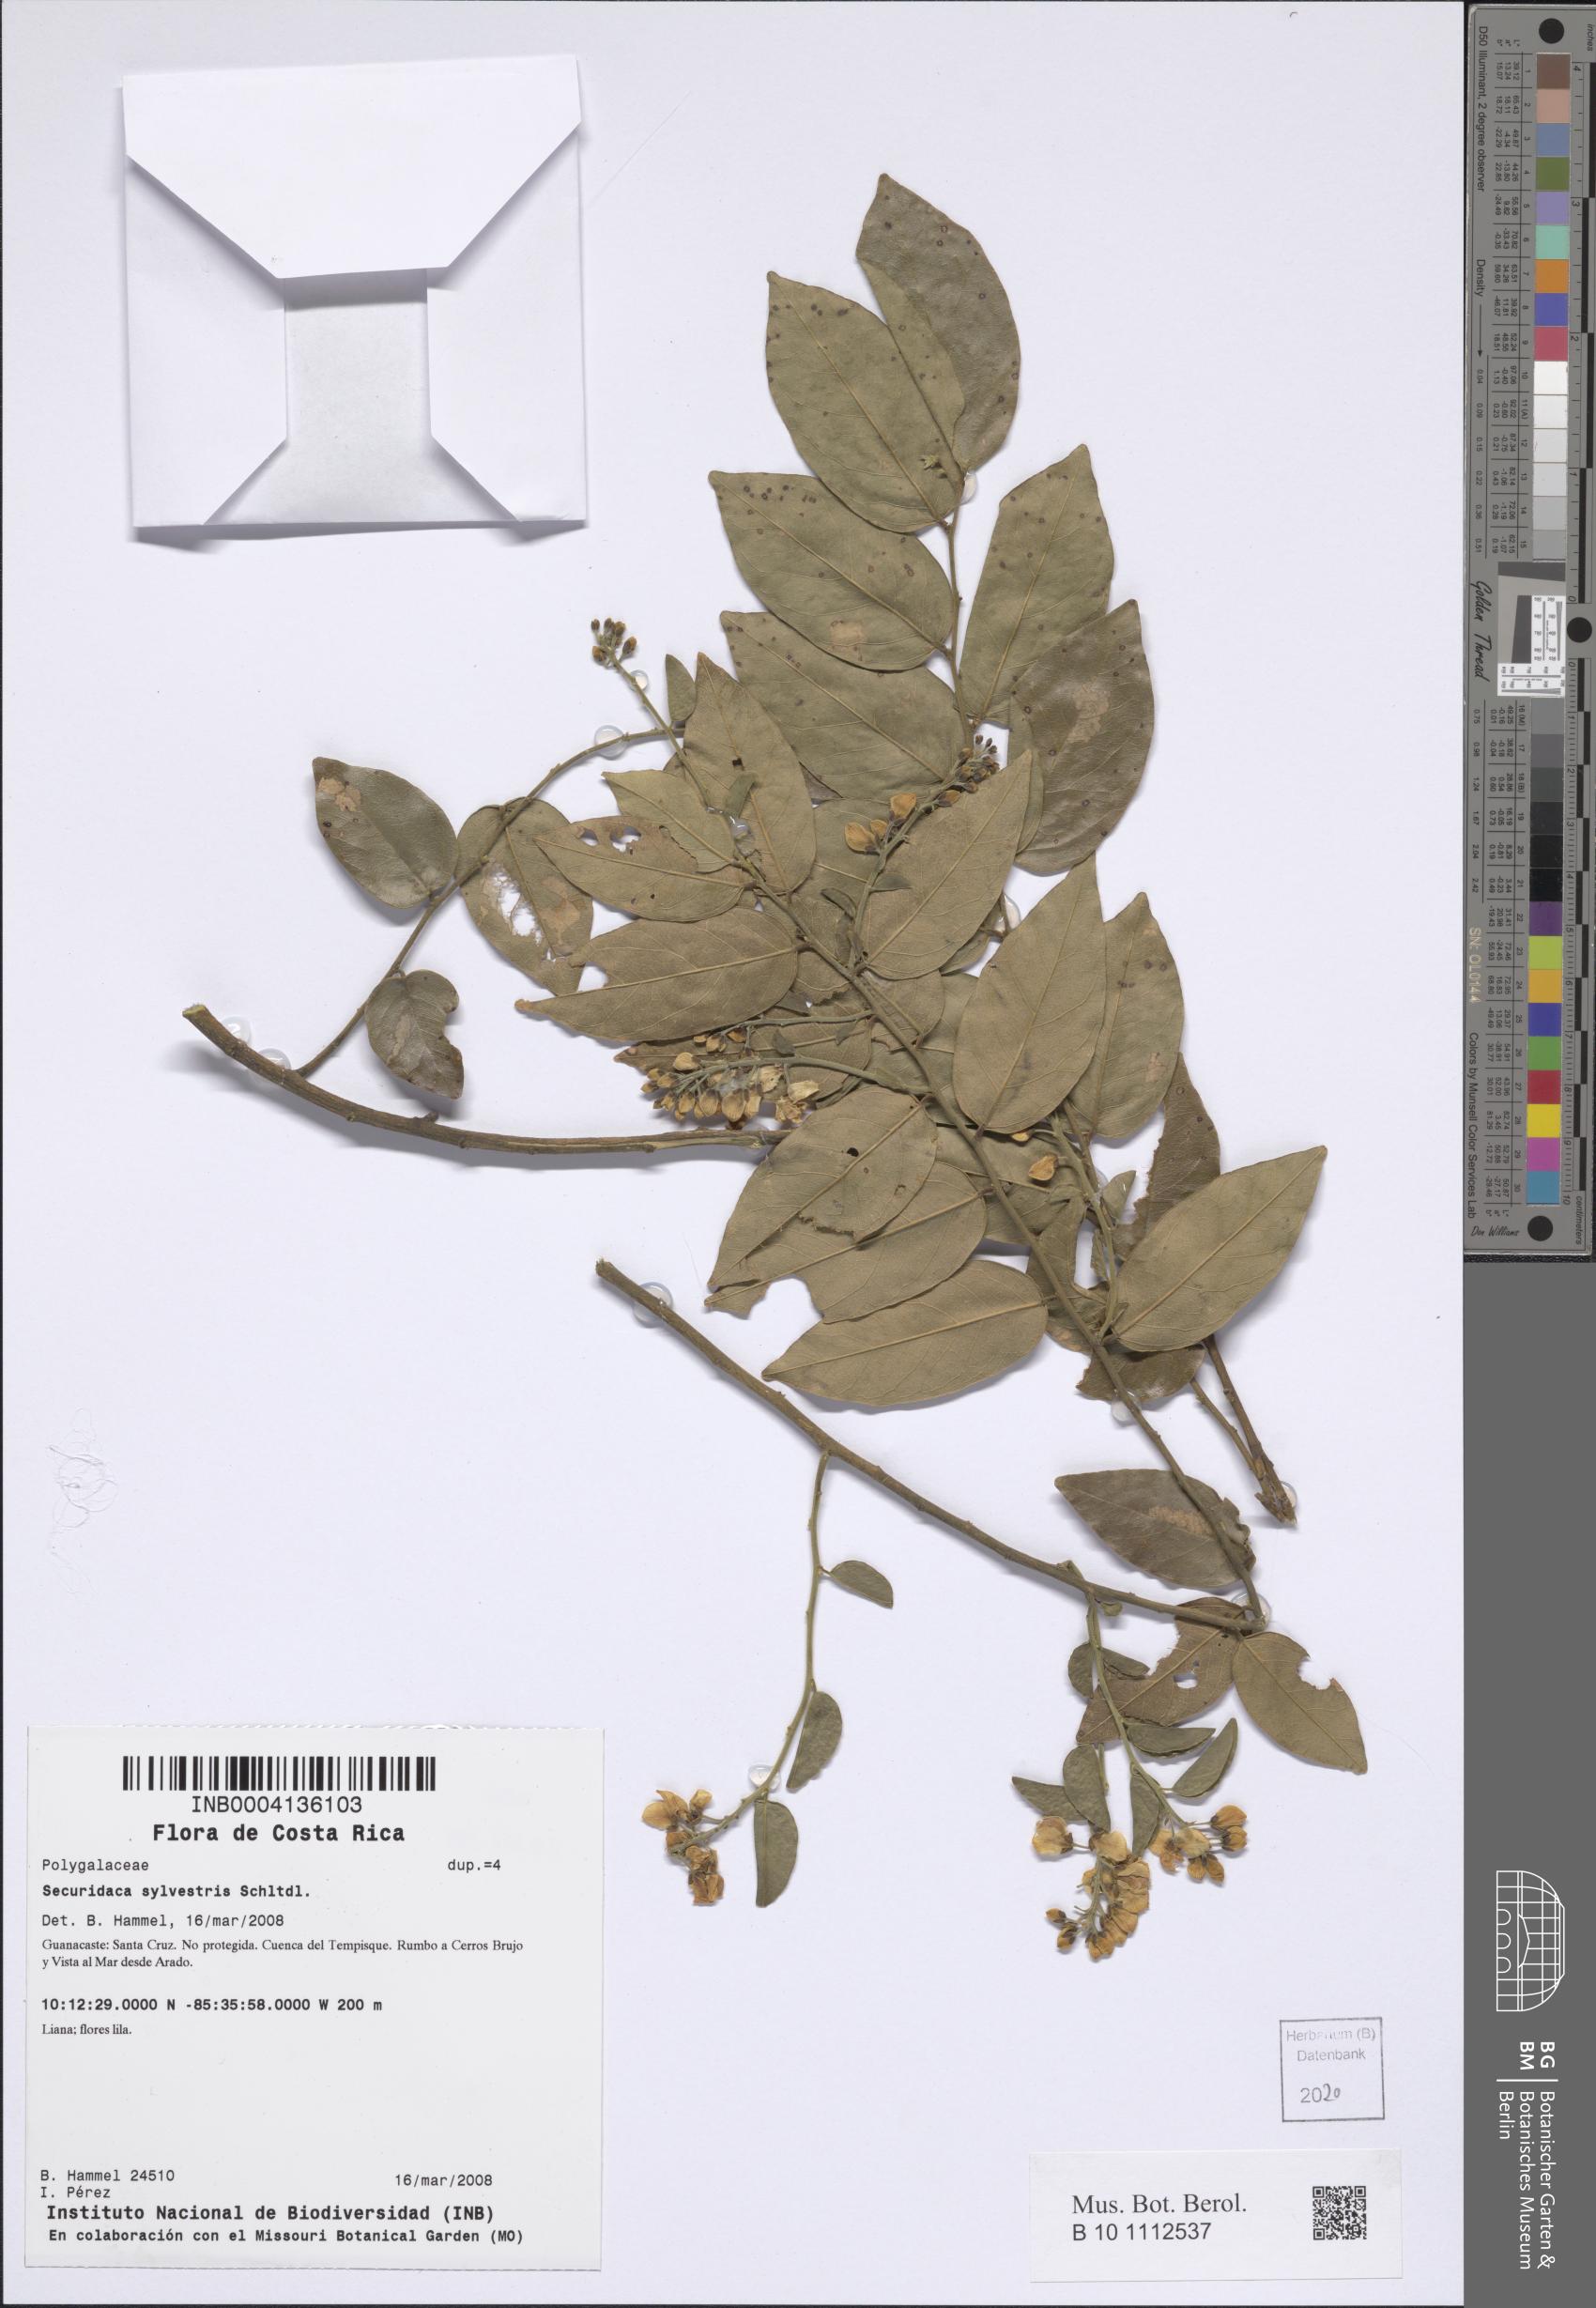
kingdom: Plantae
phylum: Tracheophyta
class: Magnoliopsida
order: Fabales
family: Polygalaceae
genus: Securidaca
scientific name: Securidaca sylvestris
